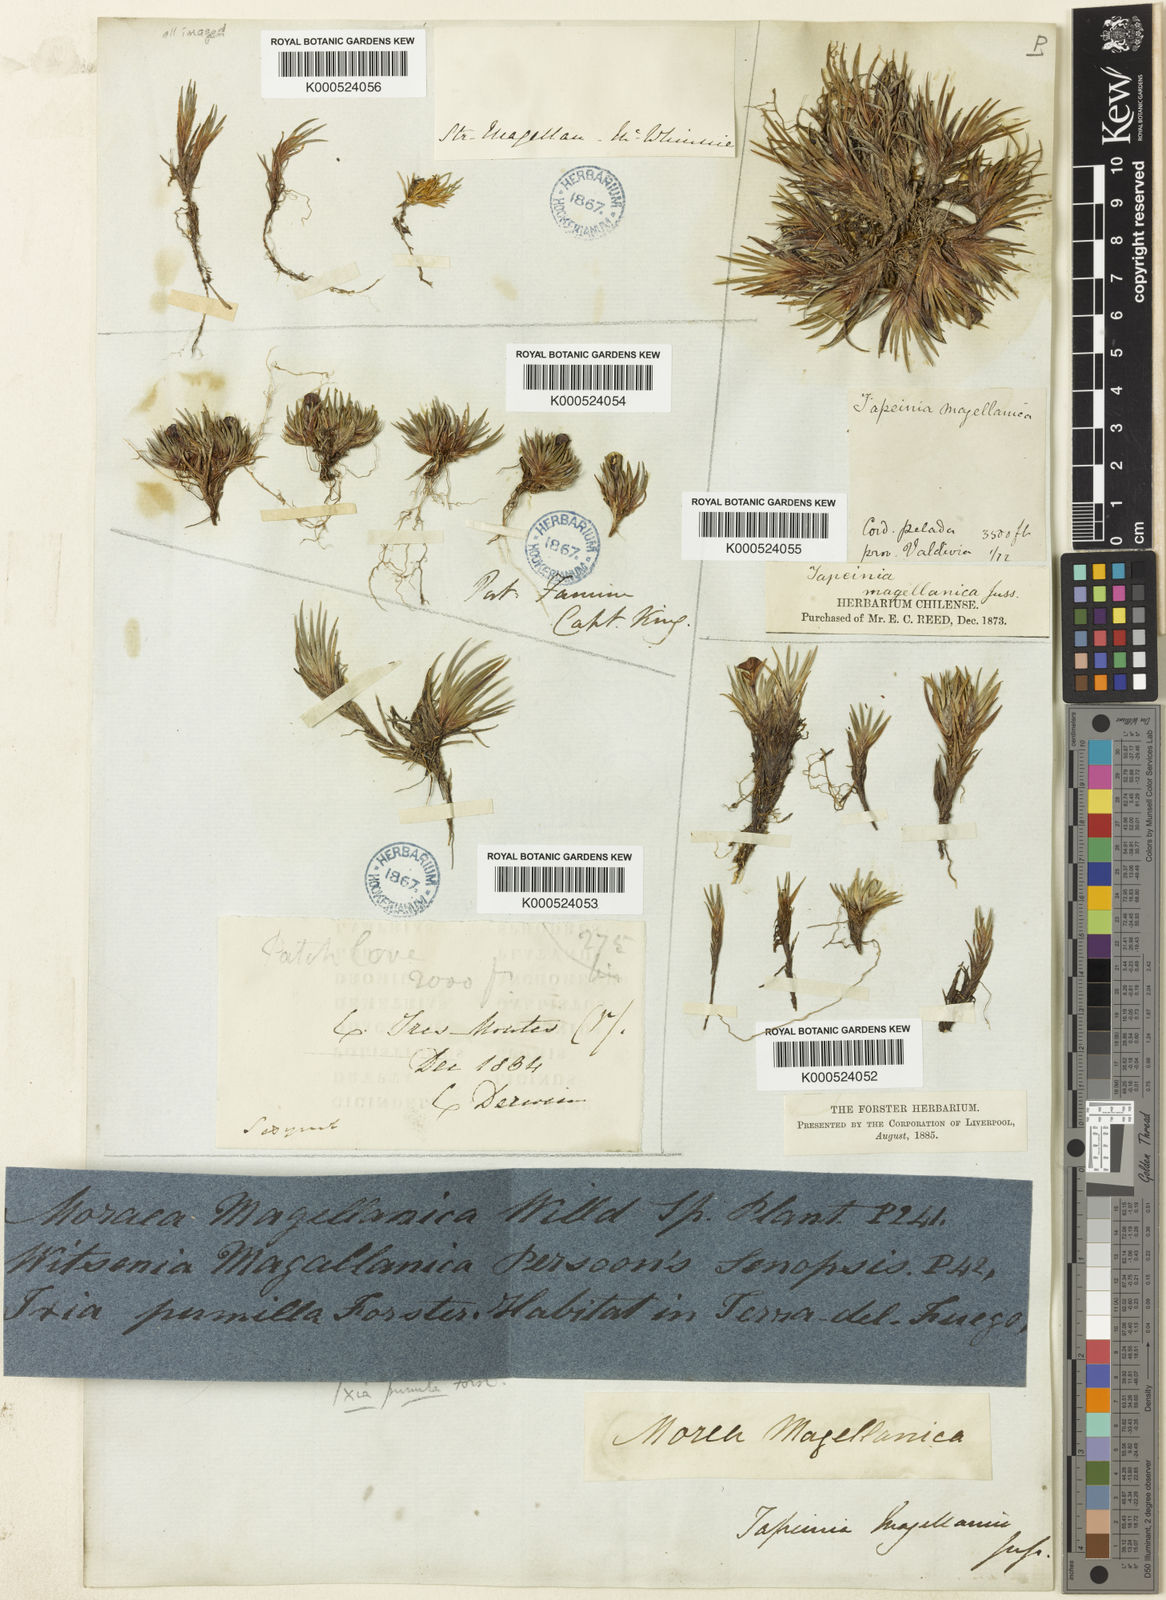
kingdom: Plantae
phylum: Tracheophyta
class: Liliopsida
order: Asparagales
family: Iridaceae
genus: Tapeinia
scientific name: Tapeinia pumila
